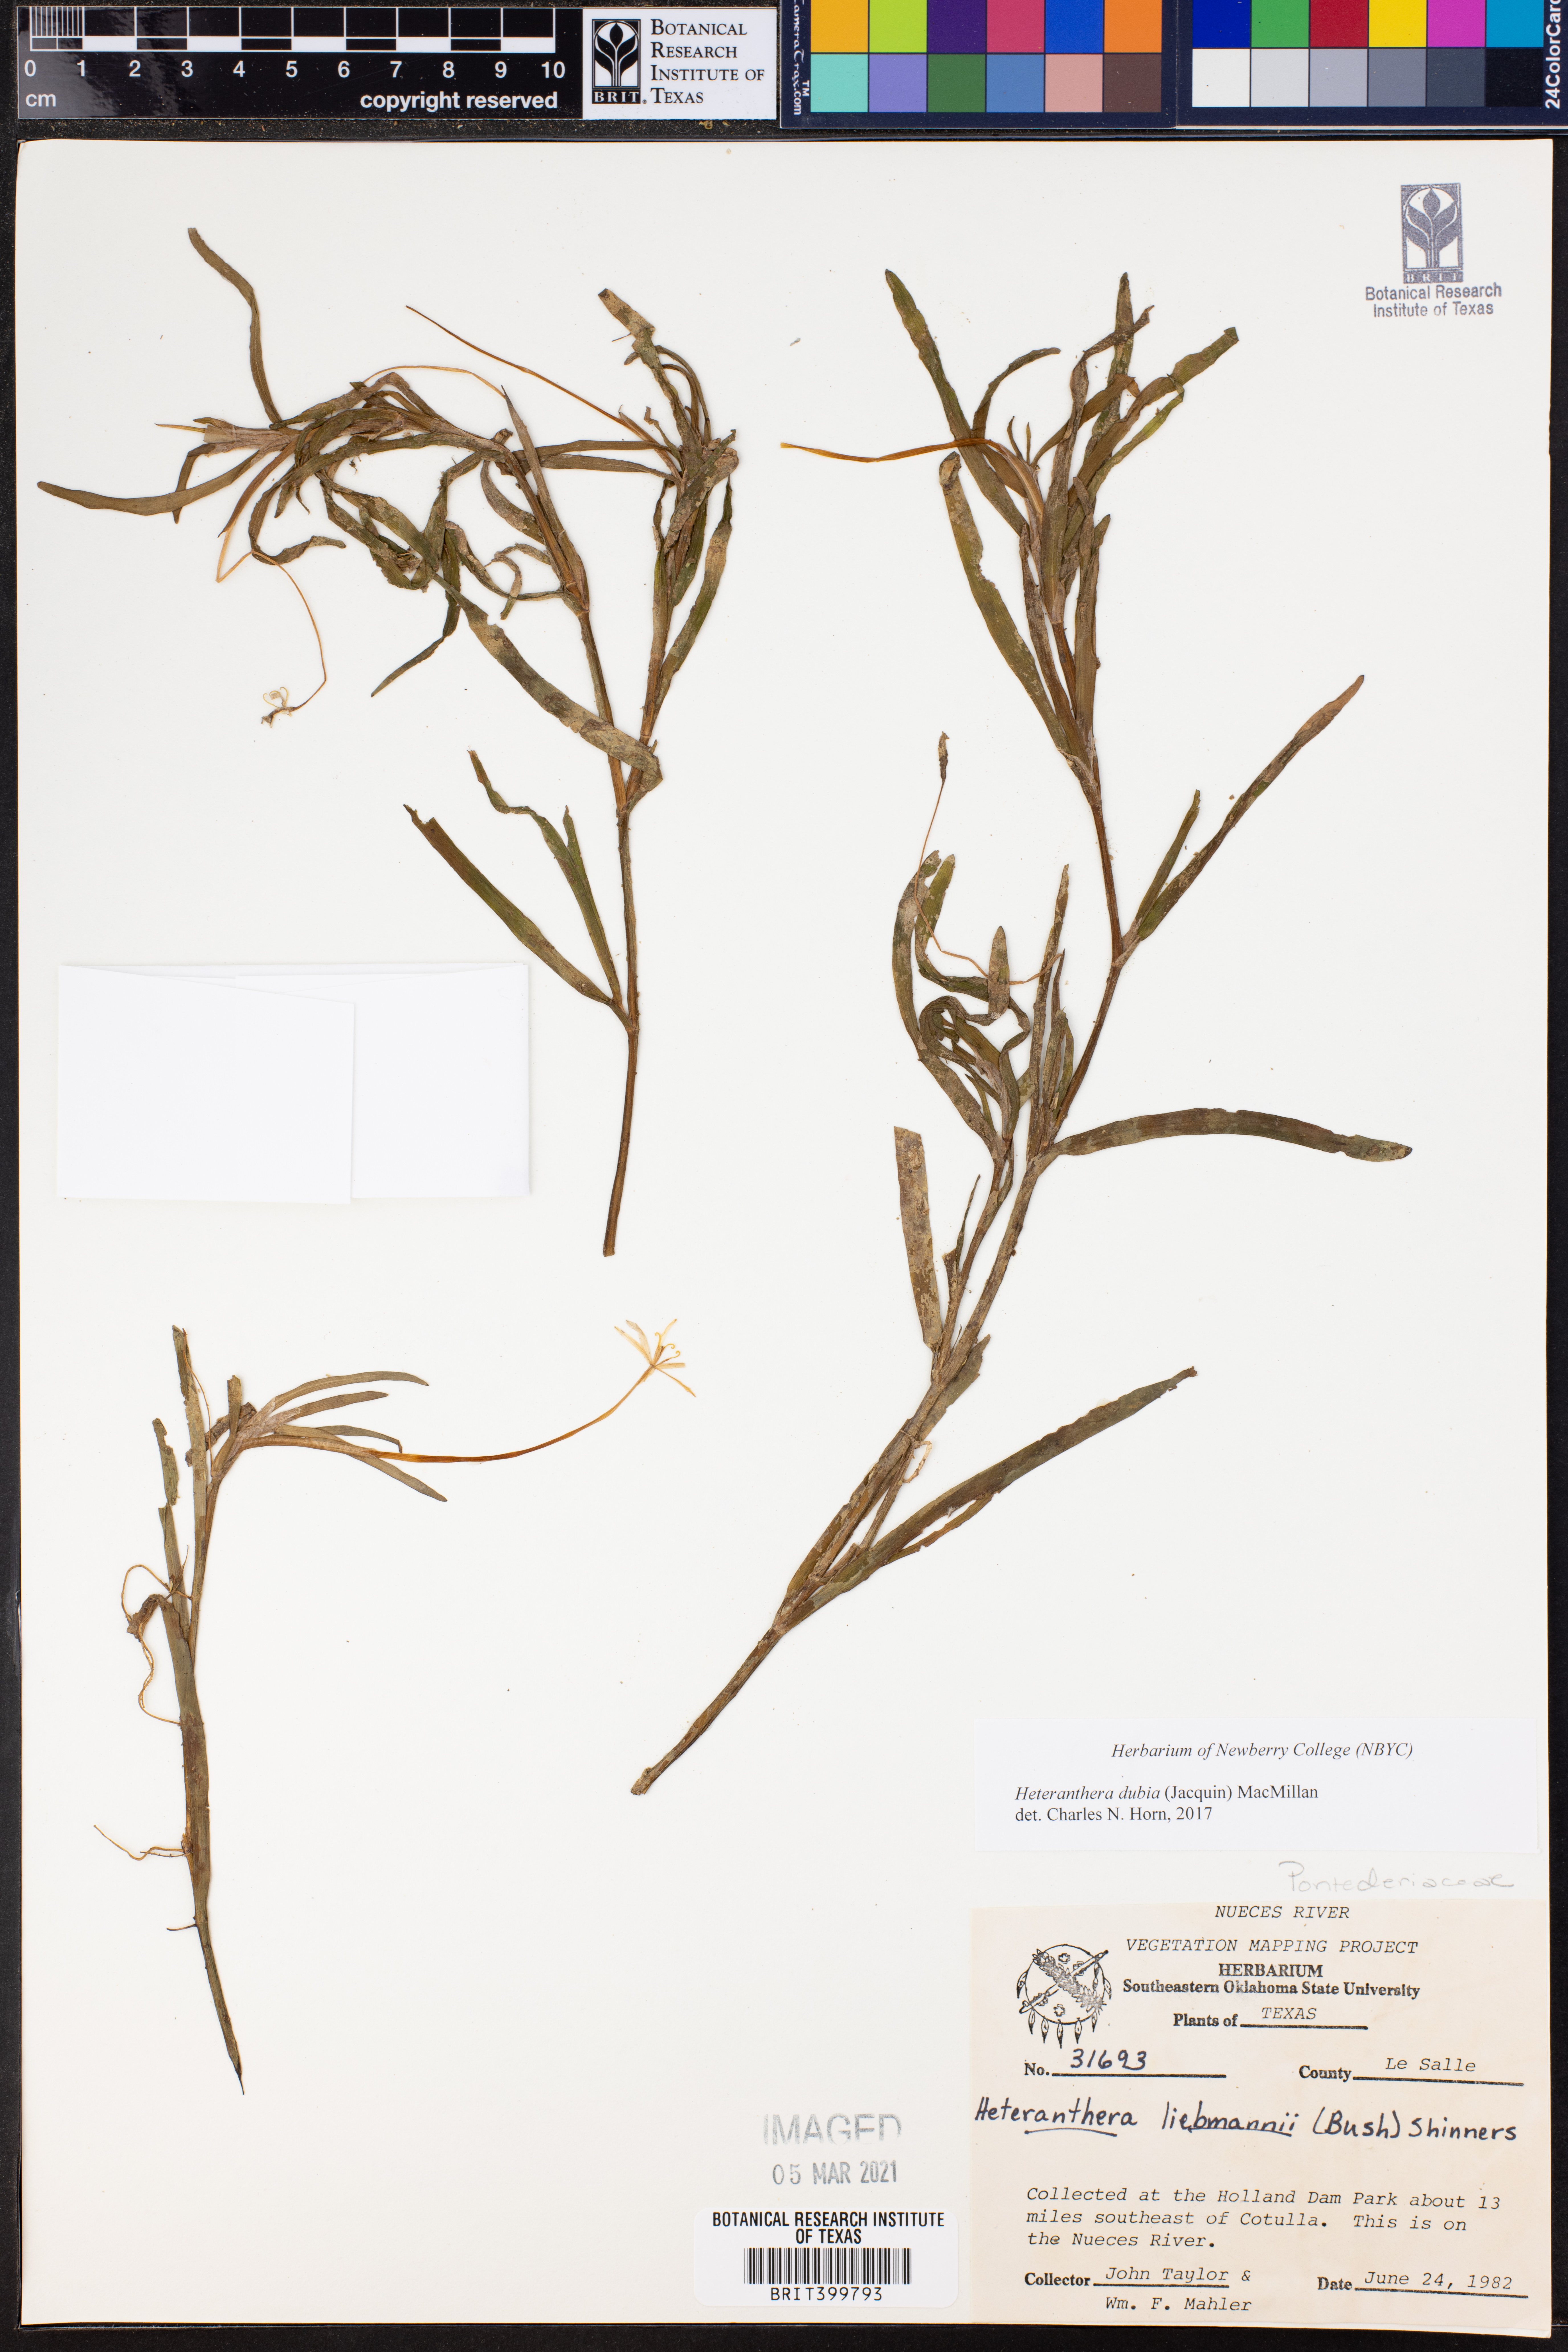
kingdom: Plantae
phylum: Tracheophyta
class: Liliopsida
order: Commelinales
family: Pontederiaceae
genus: Heteranthera
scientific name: Heteranthera dubia
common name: Grass-leaved mud plantain
